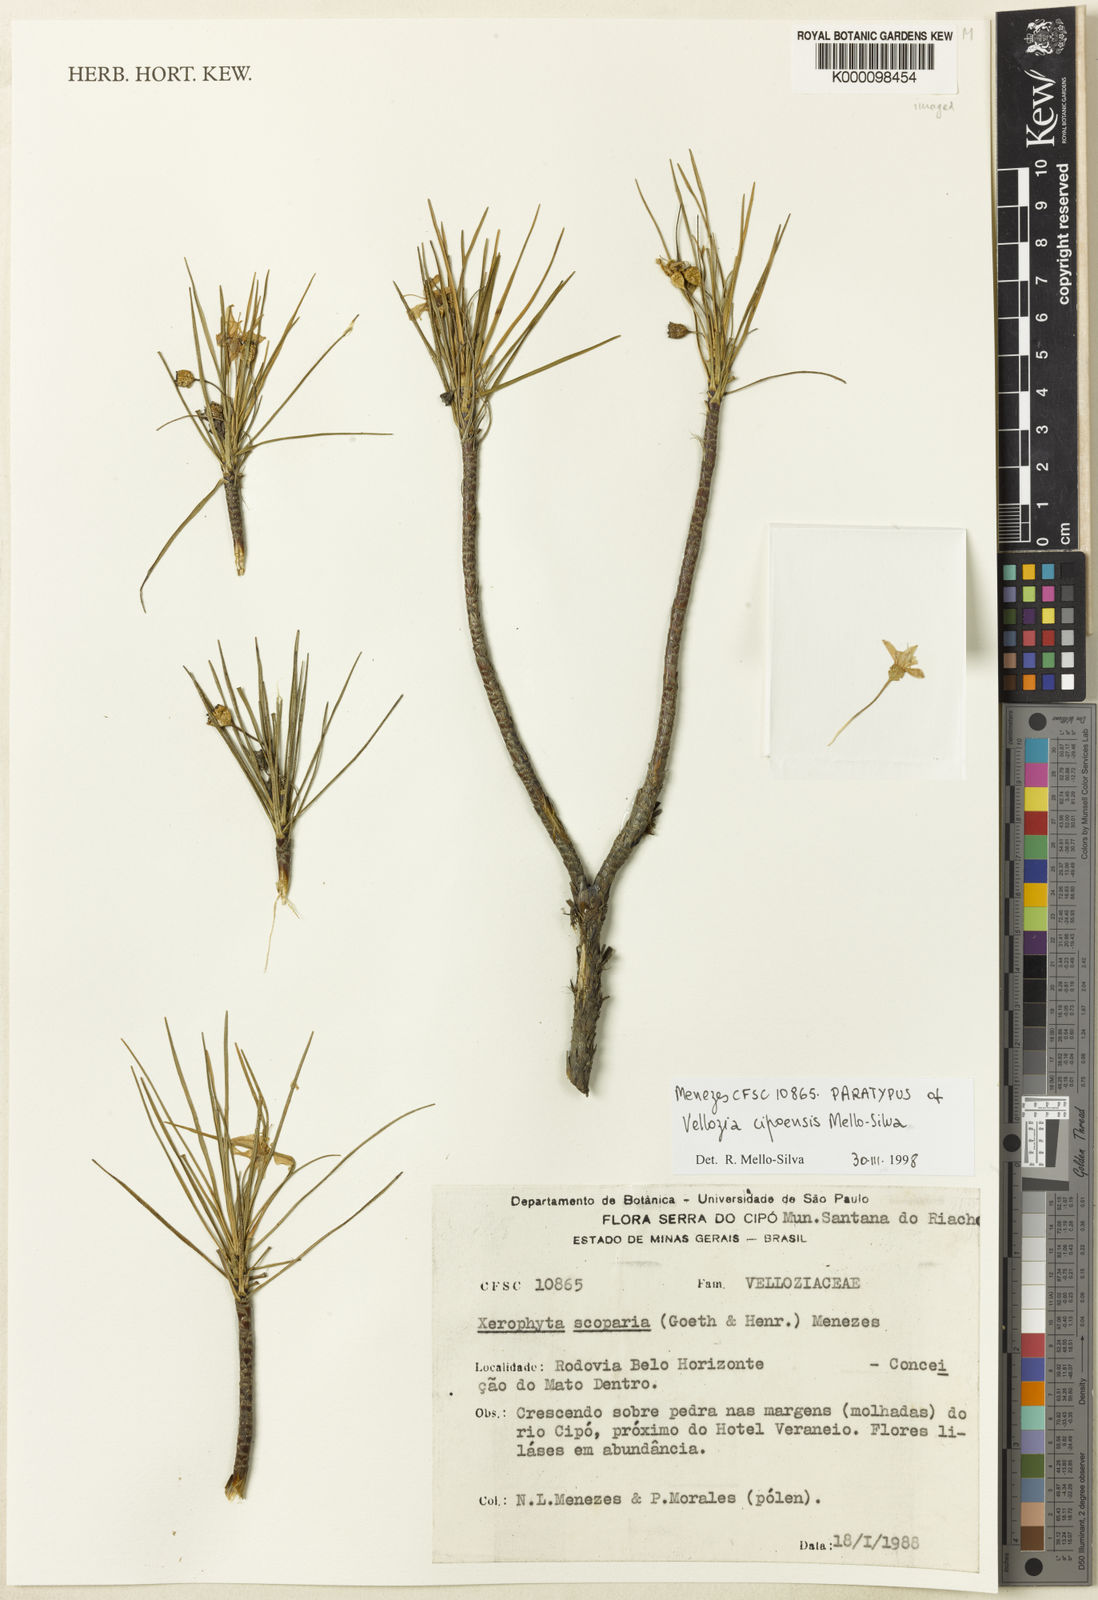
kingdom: Plantae
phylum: Tracheophyta
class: Liliopsida
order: Pandanales
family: Velloziaceae
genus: Vellozia
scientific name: Vellozia
